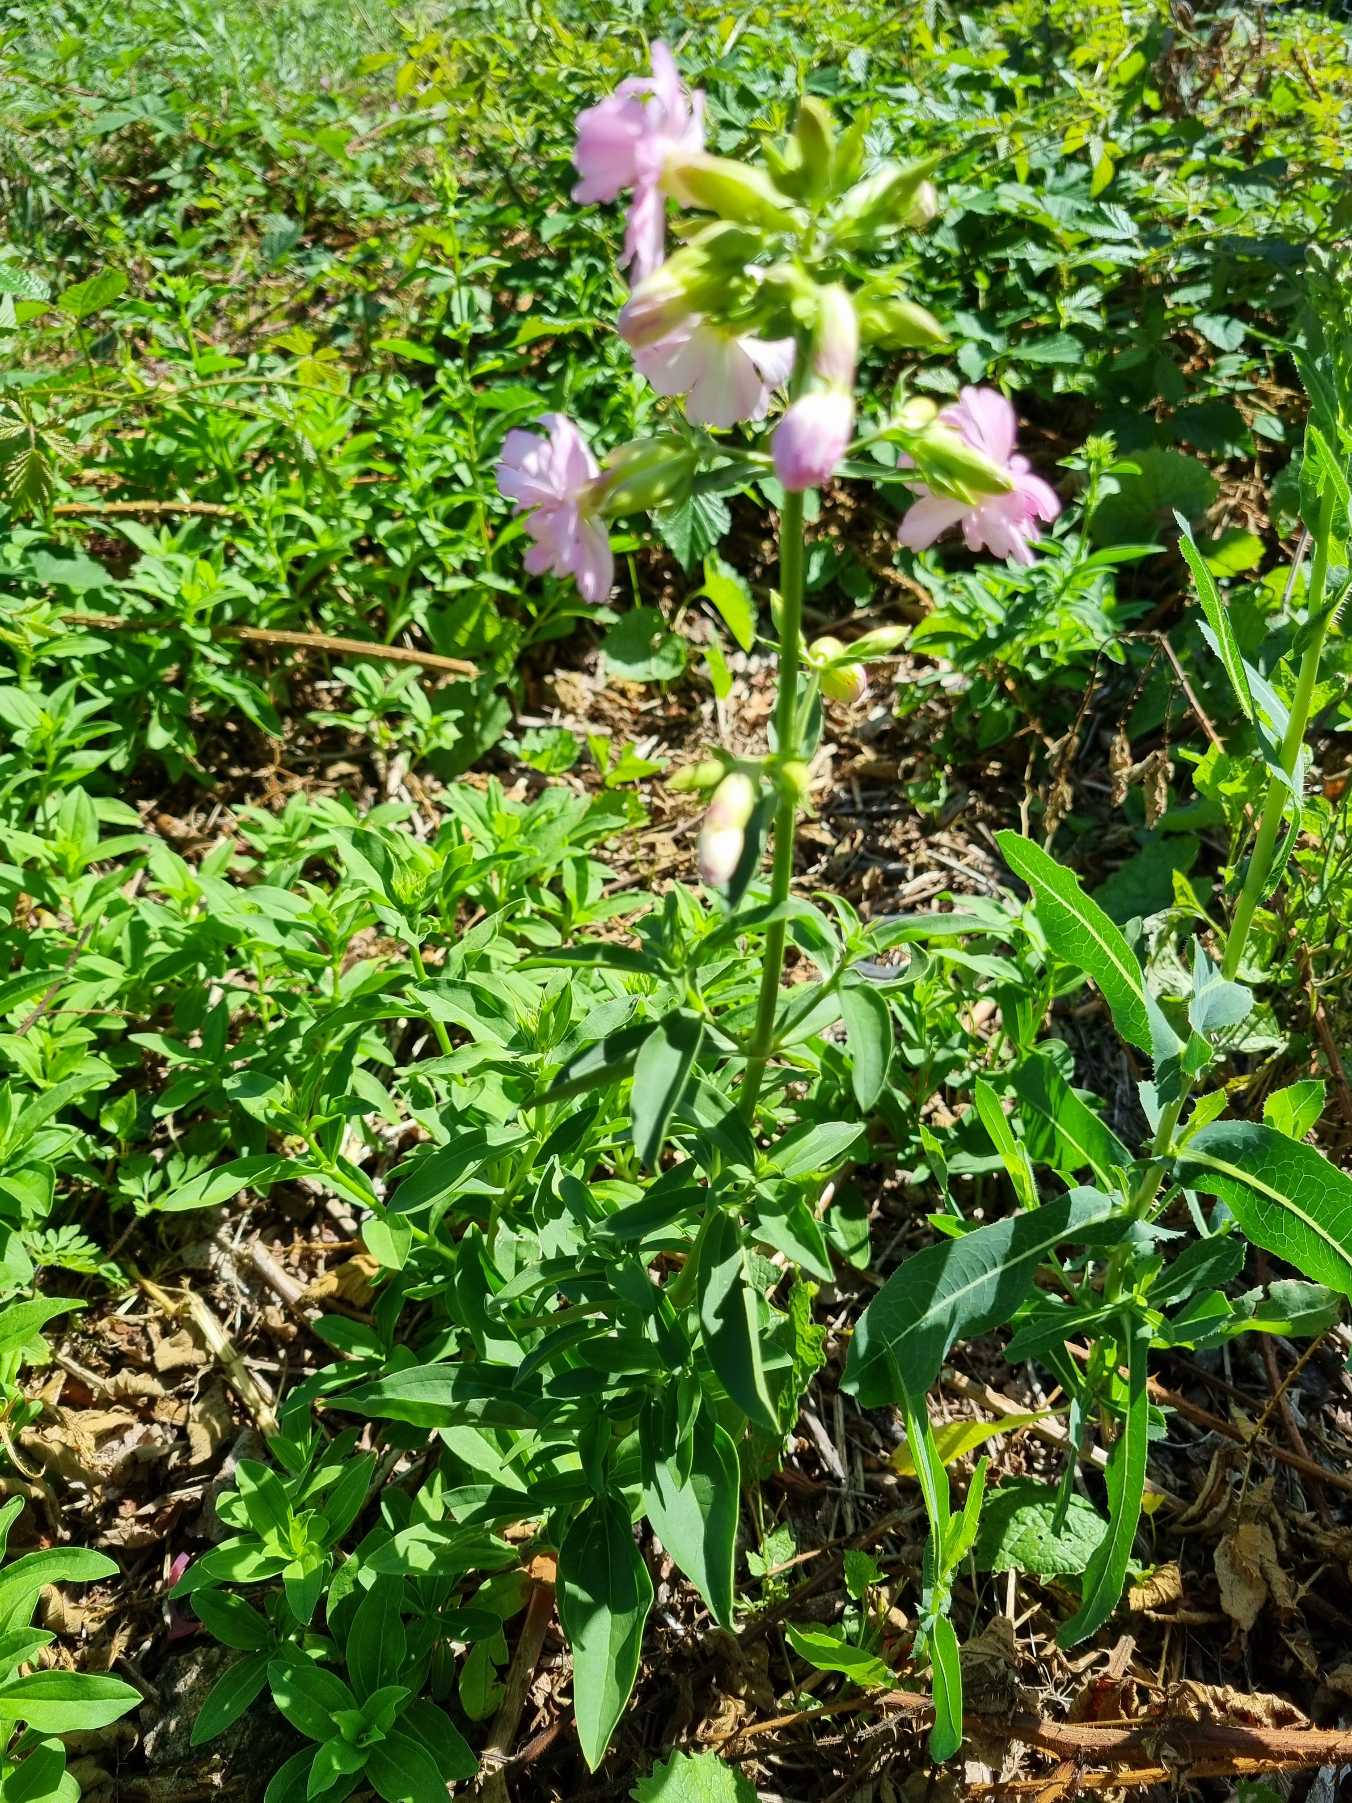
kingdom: Plantae
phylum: Tracheophyta
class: Magnoliopsida
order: Caryophyllales
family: Caryophyllaceae
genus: Saponaria
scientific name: Saponaria officinalis
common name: Sæbeurt
